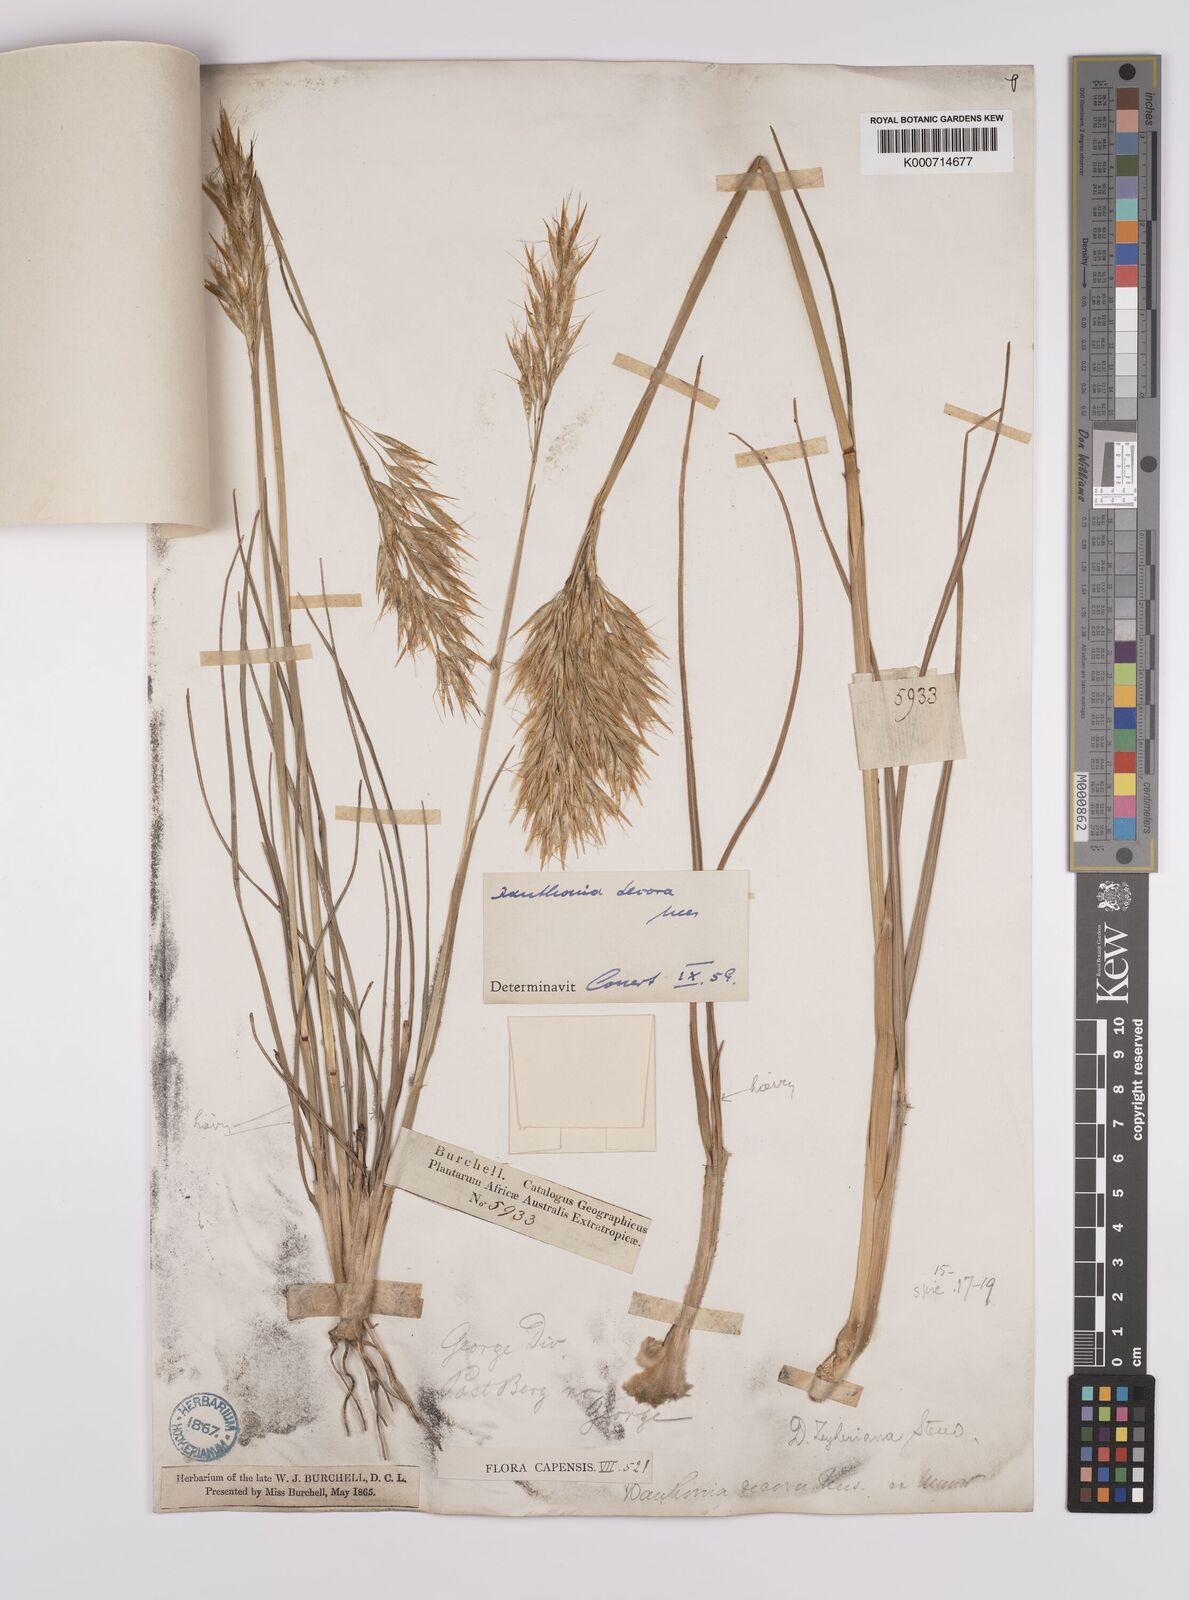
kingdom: Plantae
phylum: Tracheophyta
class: Liliopsida
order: Poales
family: Poaceae
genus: Rytidosperma
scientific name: Rytidosperma
